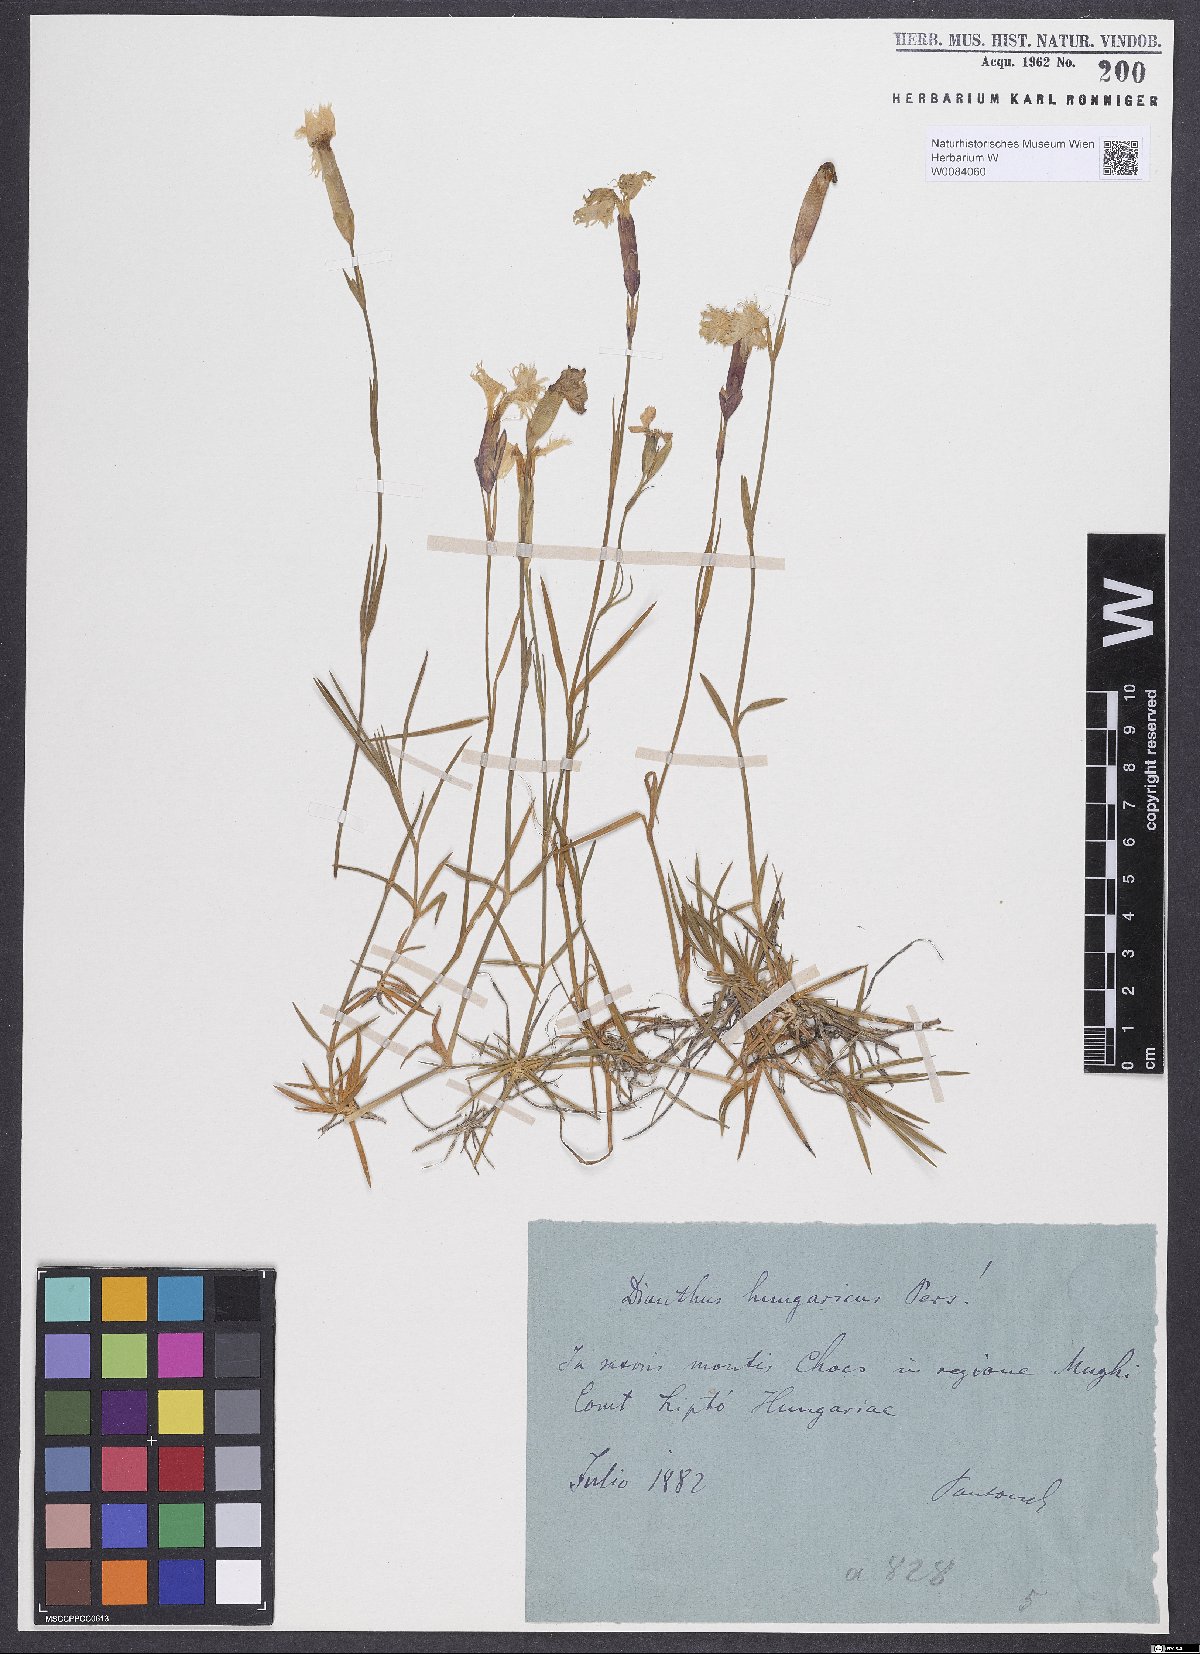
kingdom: Plantae
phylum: Tracheophyta
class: Magnoliopsida
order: Caryophyllales
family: Caryophyllaceae
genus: Dianthus
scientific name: Dianthus plumarius
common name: Pink
